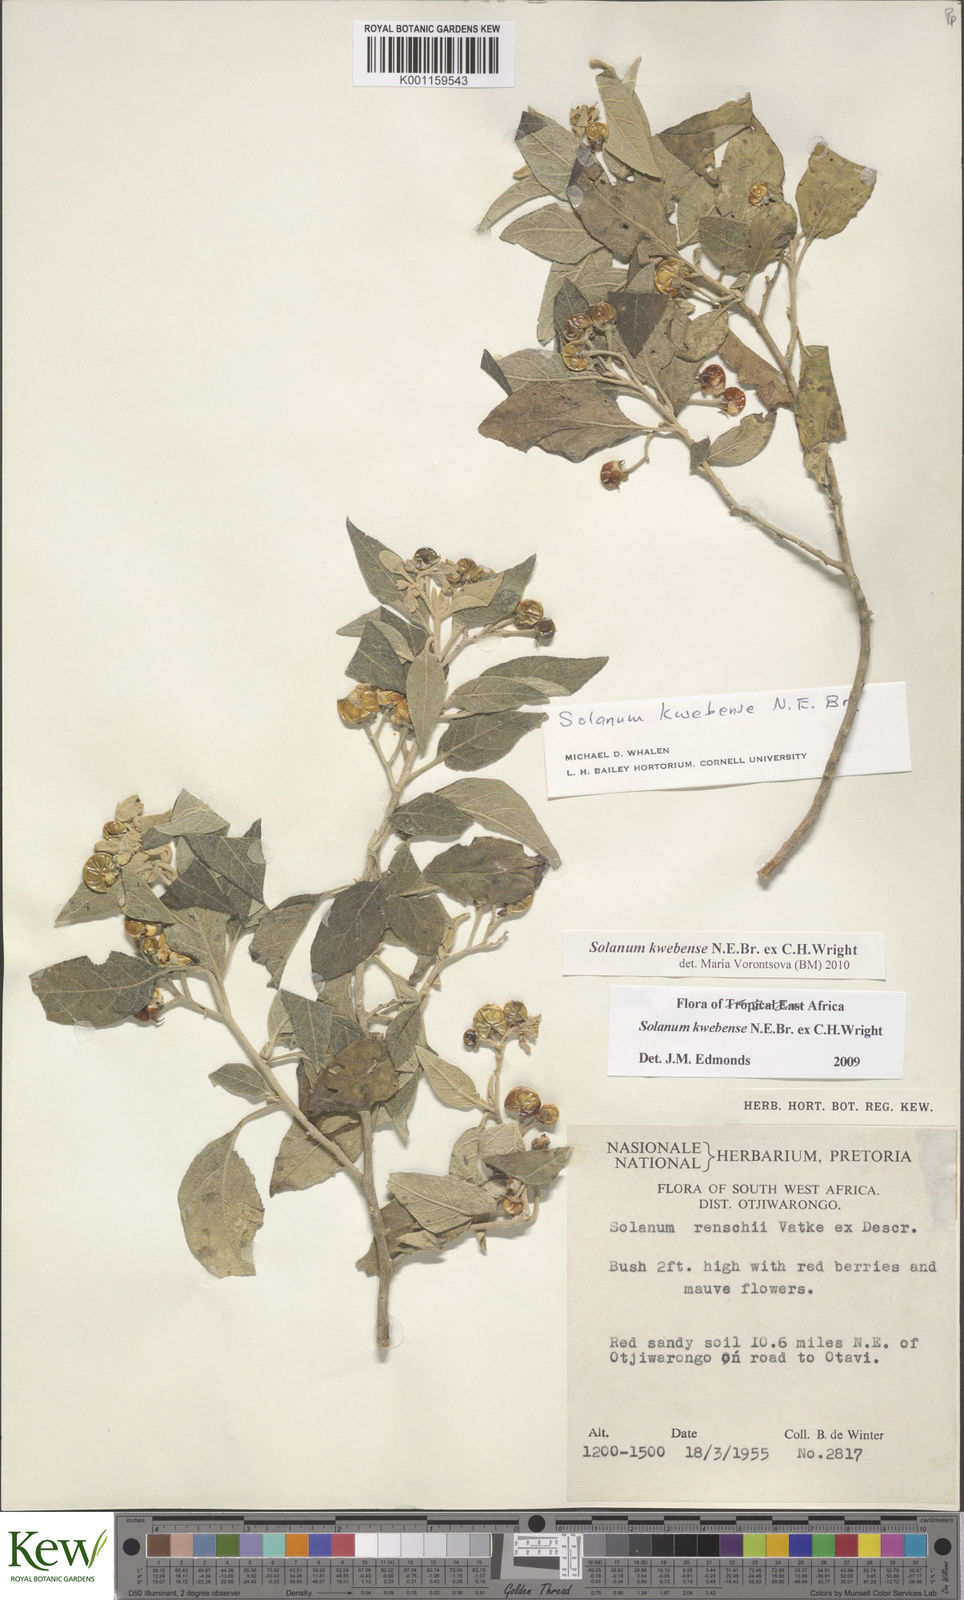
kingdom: Plantae
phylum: Tracheophyta
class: Magnoliopsida
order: Solanales
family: Solanaceae
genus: Solanum
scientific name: Solanum tettense
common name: Mozambique bitter apple
